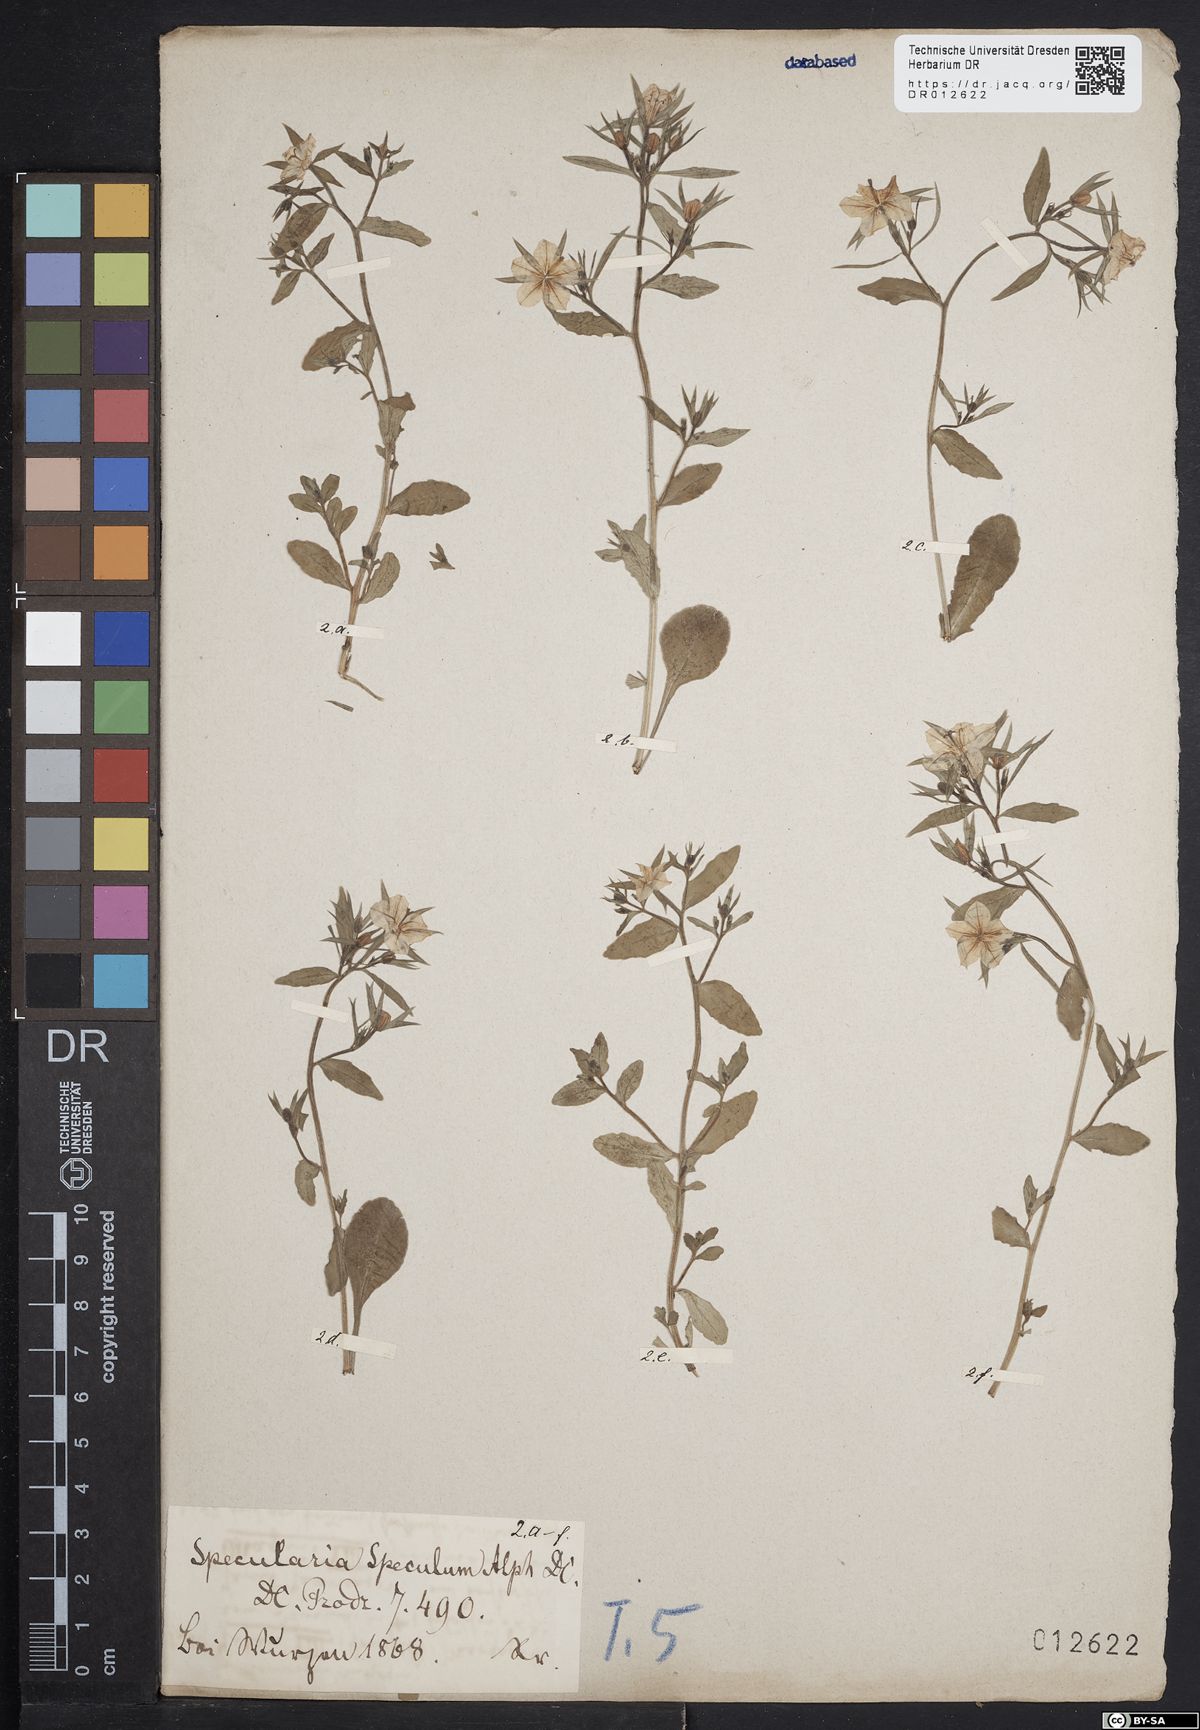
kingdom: Plantae
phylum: Tracheophyta
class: Magnoliopsida
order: Asterales
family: Campanulaceae
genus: Legousia
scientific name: Legousia speculum-veneris
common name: Large venus's-looking-glass
